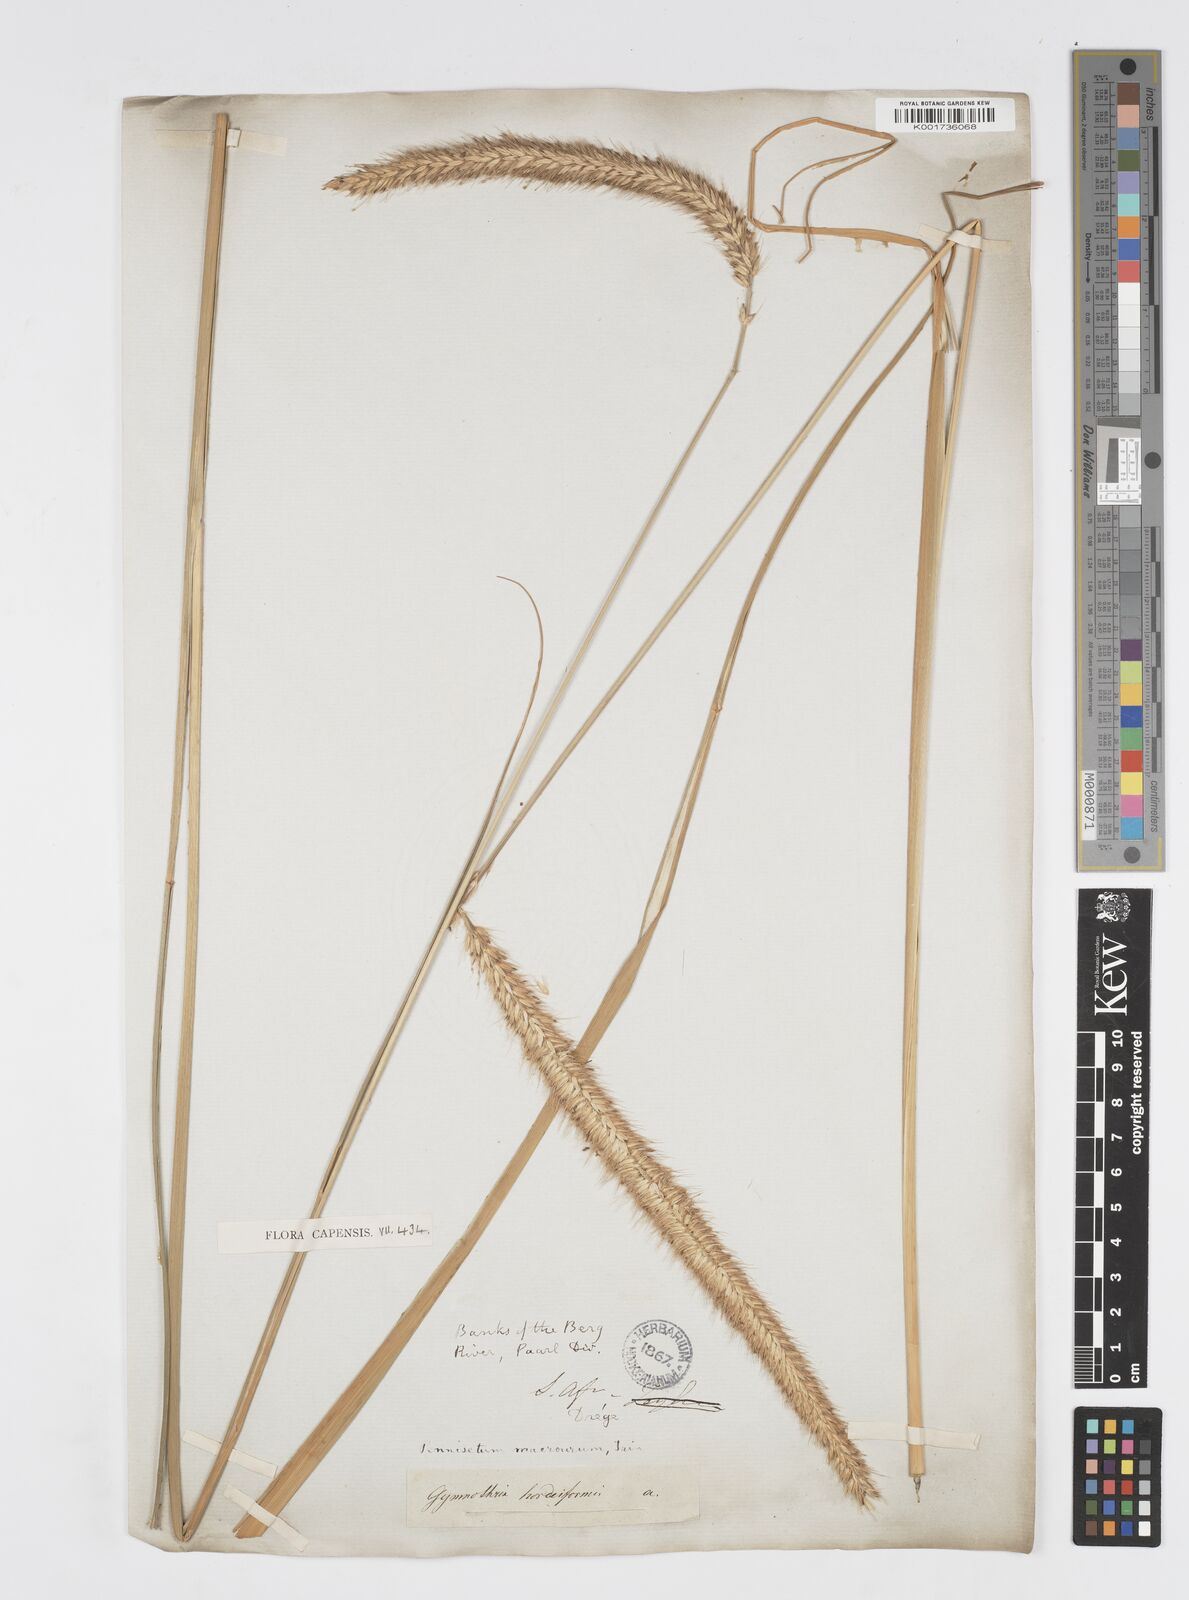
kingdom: Plantae
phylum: Tracheophyta
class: Liliopsida
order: Poales
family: Poaceae
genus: Cenchrus
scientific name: Cenchrus purpureus
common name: Elephant grass
